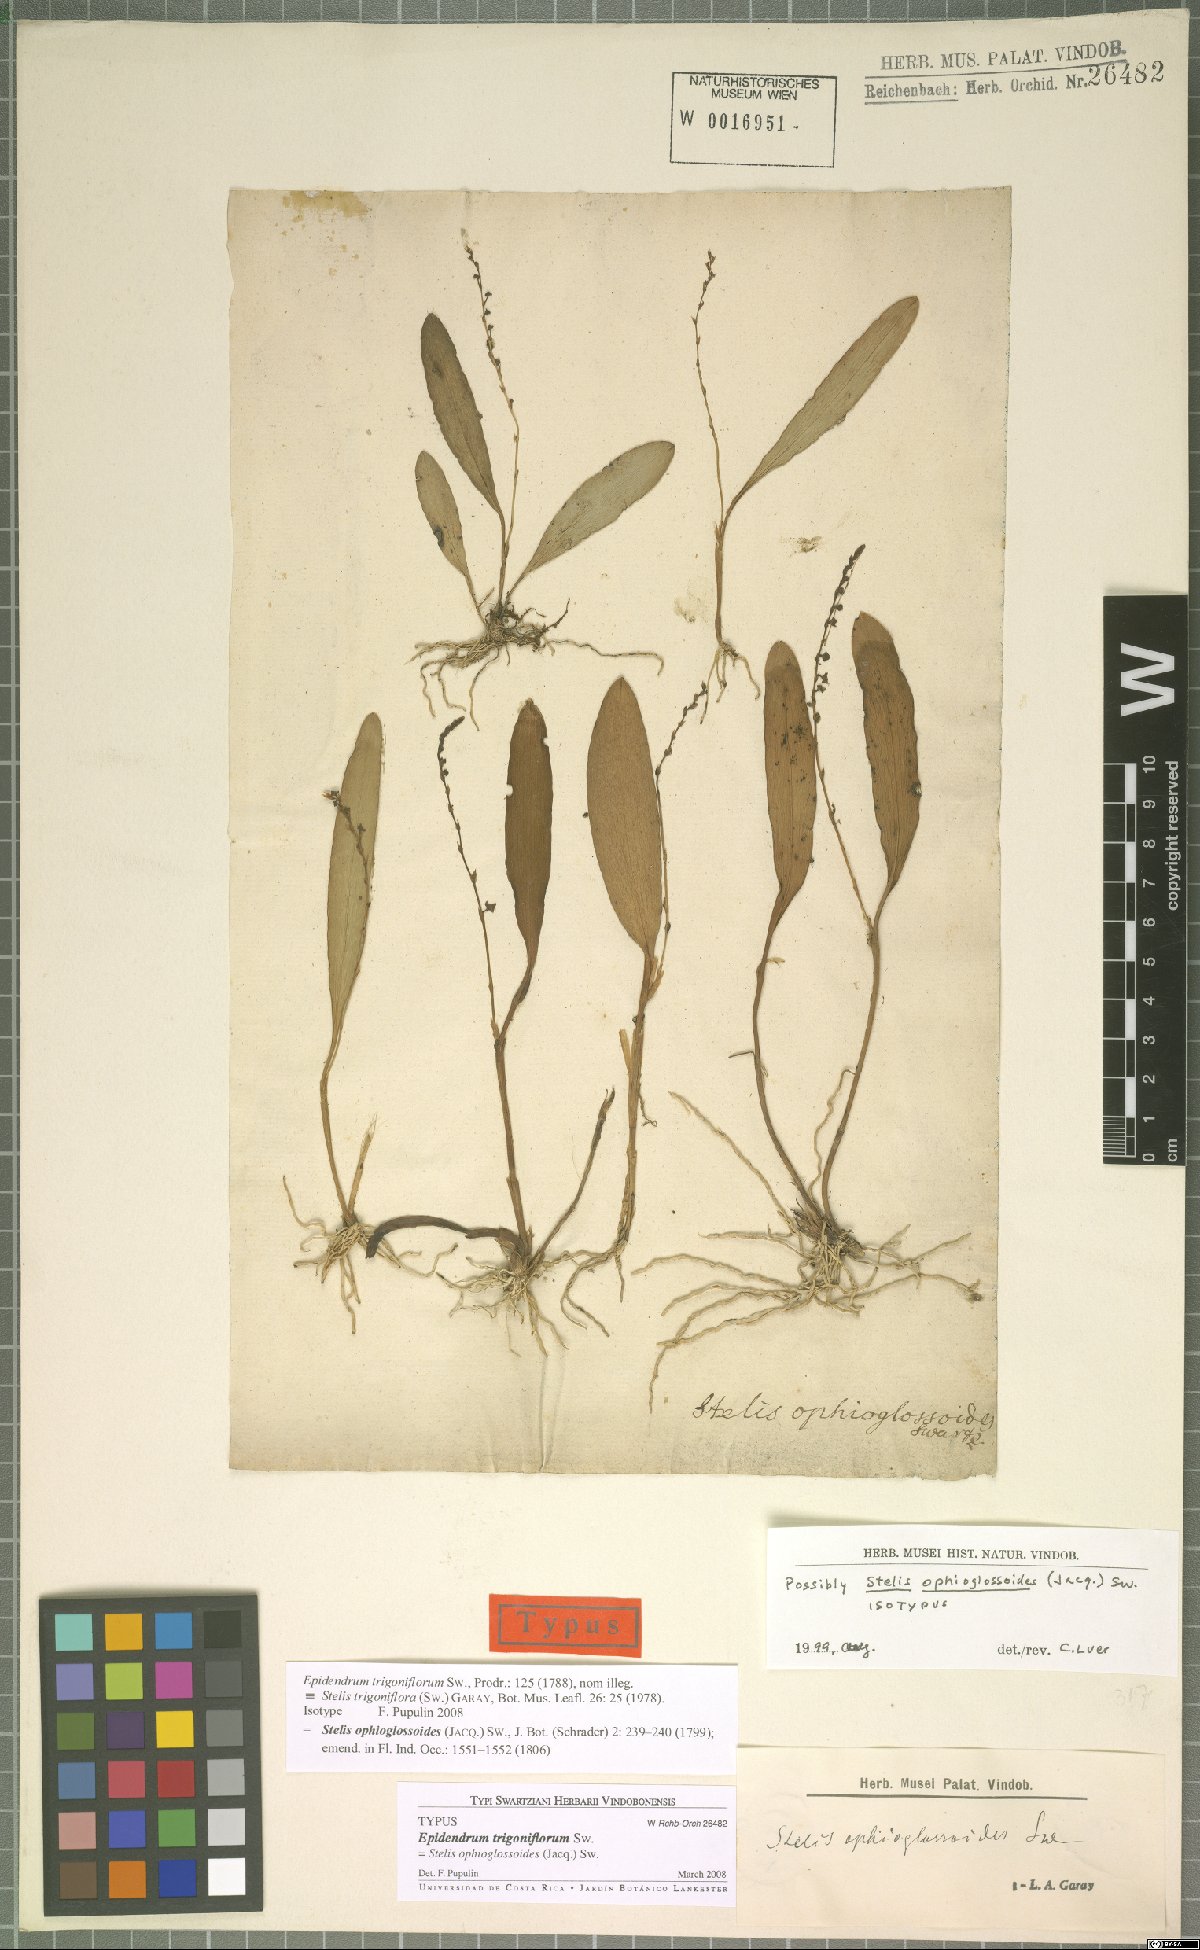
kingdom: Plantae
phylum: Tracheophyta
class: Liliopsida
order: Asparagales
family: Orchidaceae
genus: Stelis
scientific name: Stelis ophioglossoides
